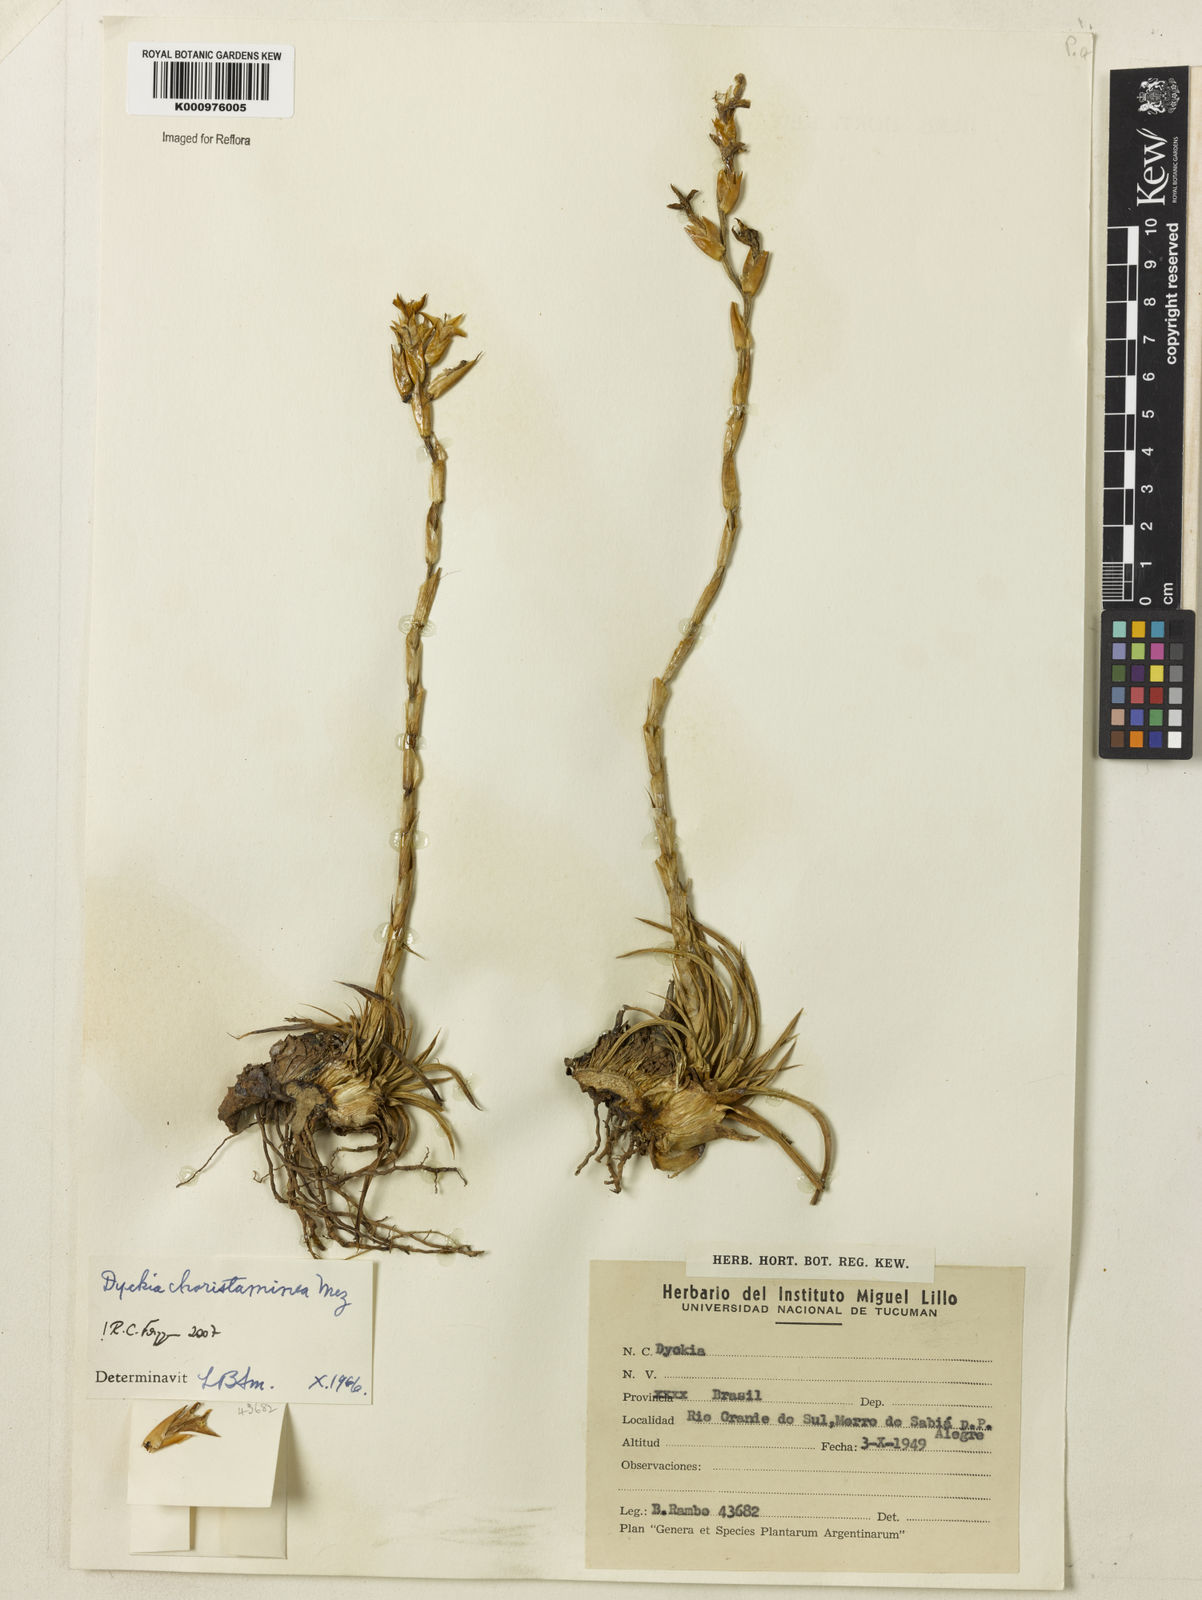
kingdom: Plantae
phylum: Tracheophyta
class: Liliopsida
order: Poales
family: Bromeliaceae
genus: Dyckia
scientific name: Dyckia choristaminea
